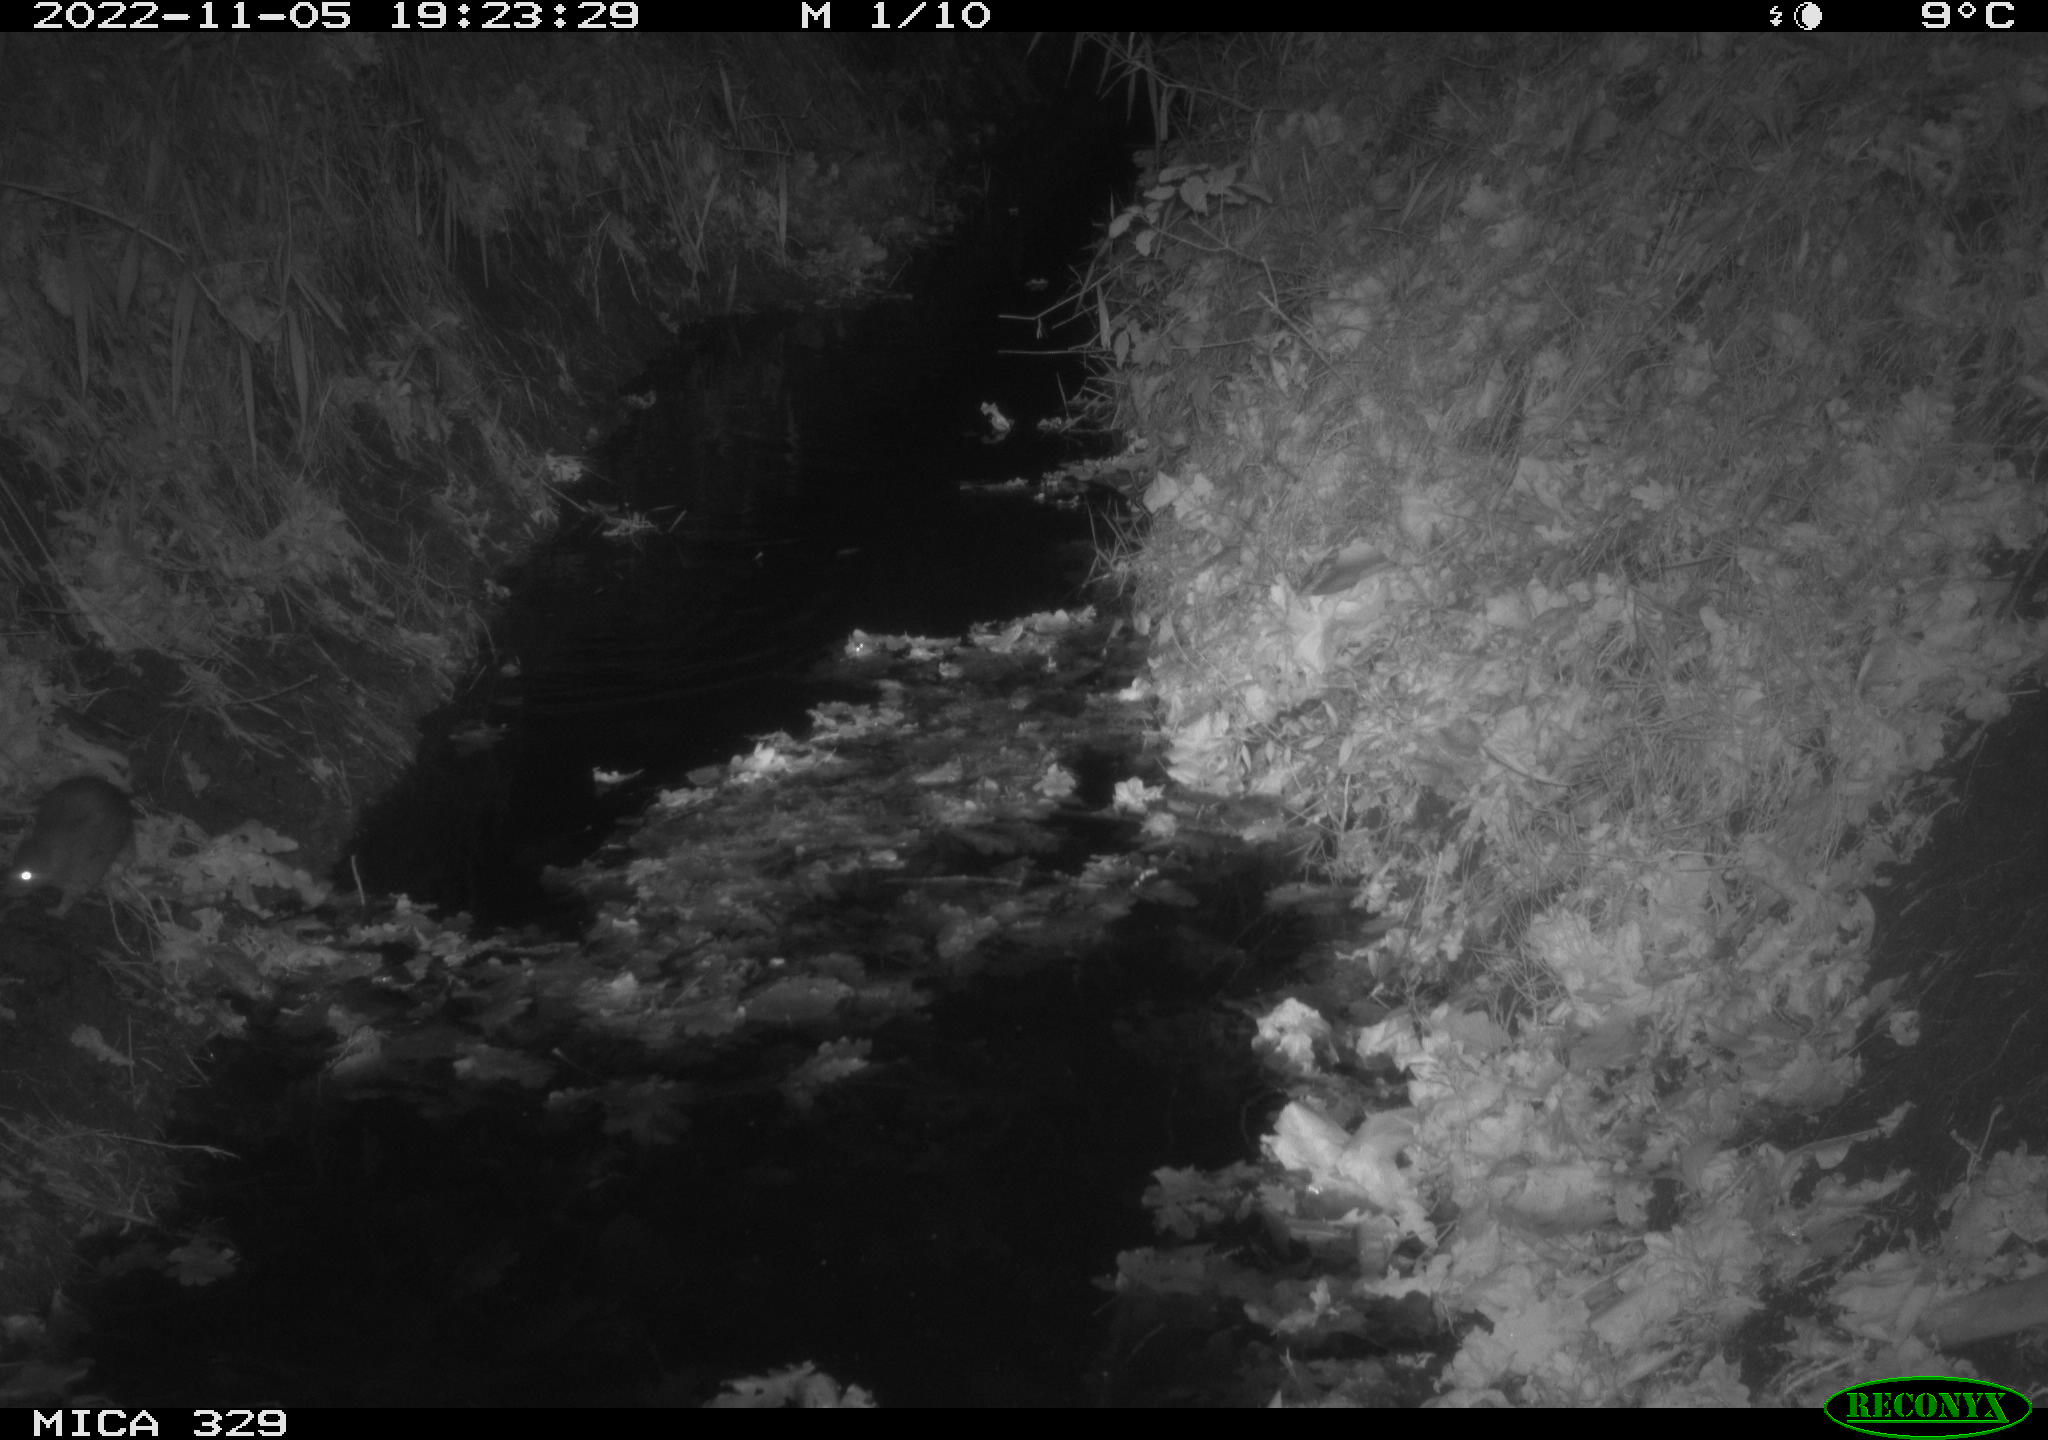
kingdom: Animalia
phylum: Chordata
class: Mammalia
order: Rodentia
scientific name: Rodentia
